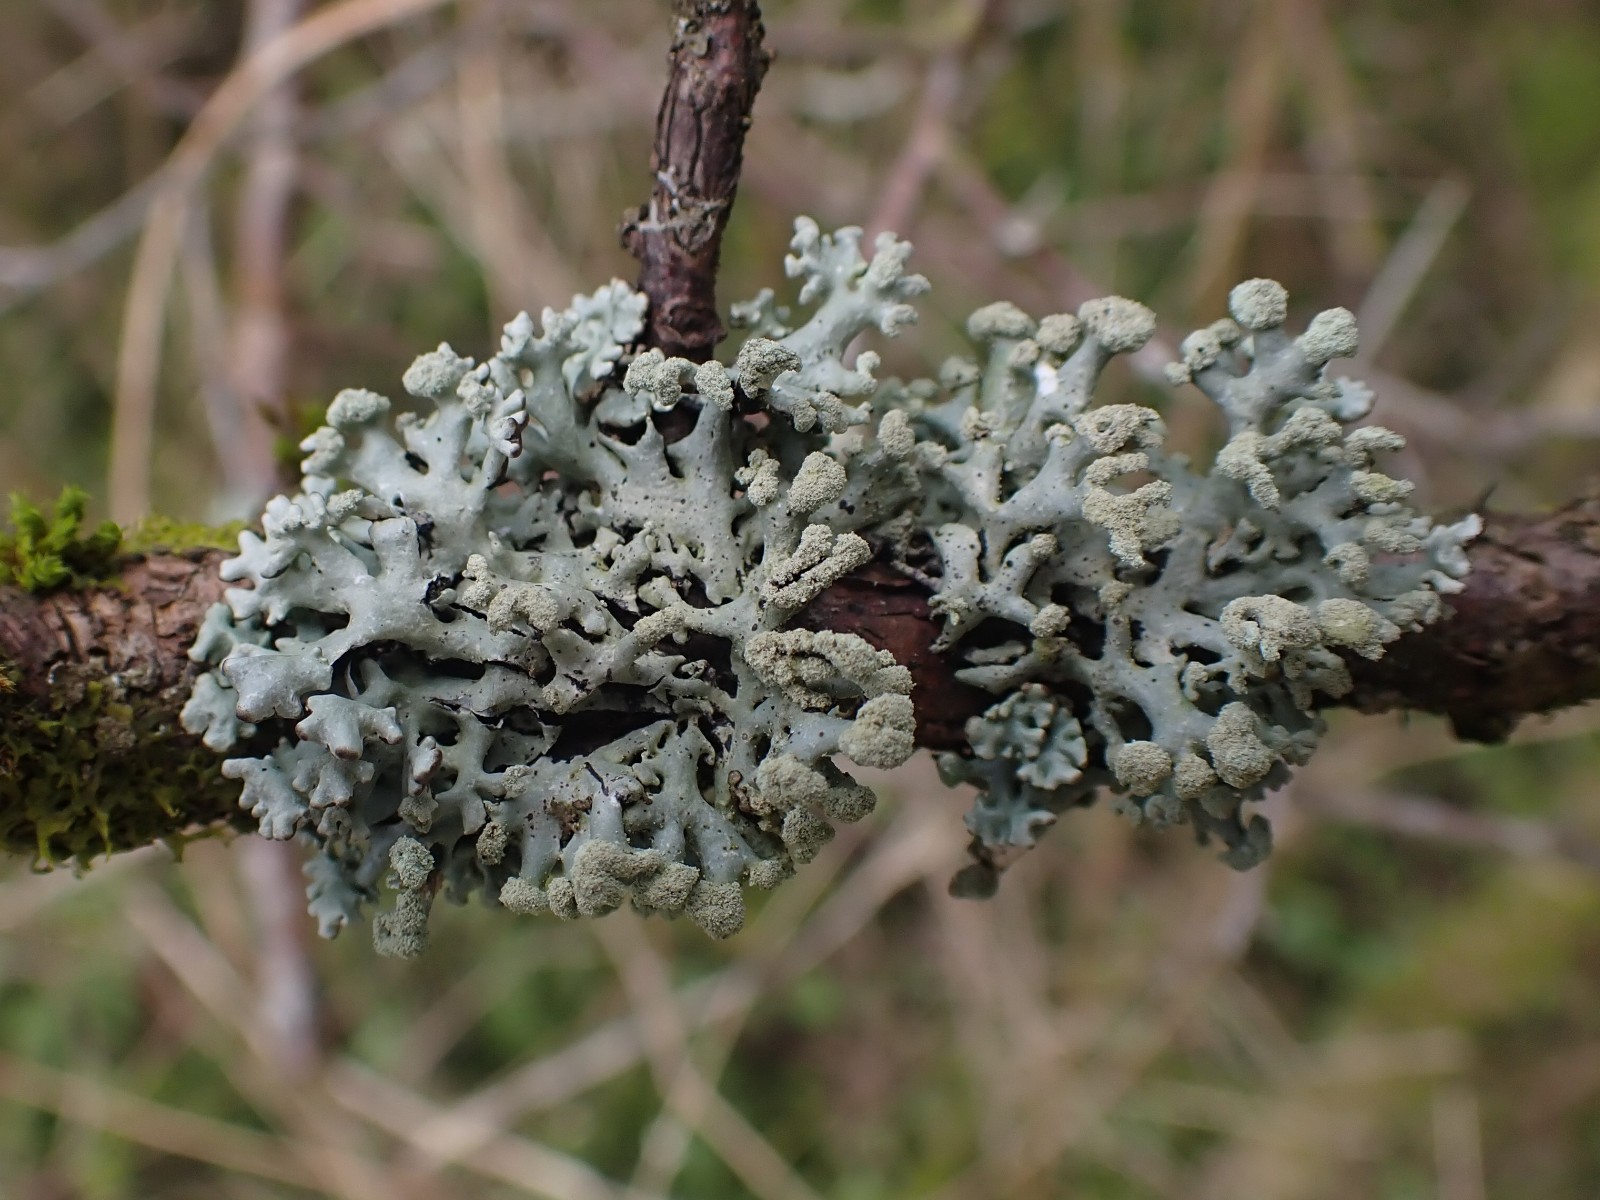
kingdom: Fungi
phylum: Ascomycota
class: Lecanoromycetes
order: Lecanorales
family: Parmeliaceae
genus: Hypogymnia
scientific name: Hypogymnia tubulosa
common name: finger-kvistlav
